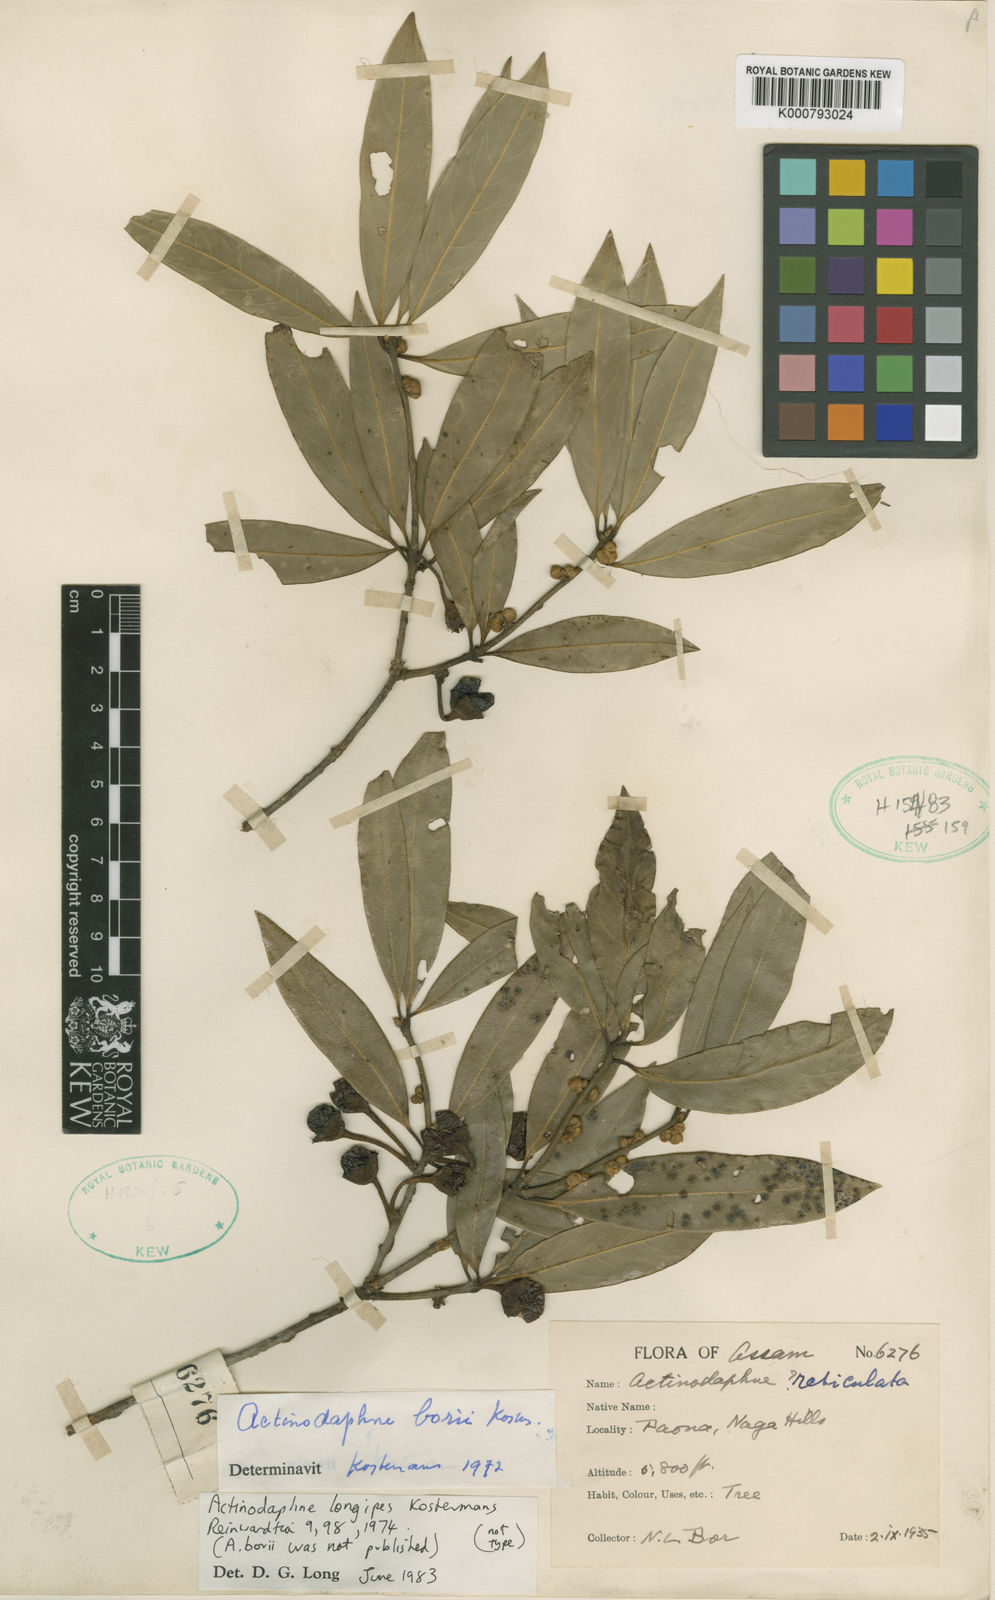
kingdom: Plantae
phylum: Tracheophyta
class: Magnoliopsida
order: Laurales
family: Lauraceae
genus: Actinodaphne
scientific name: Actinodaphne
